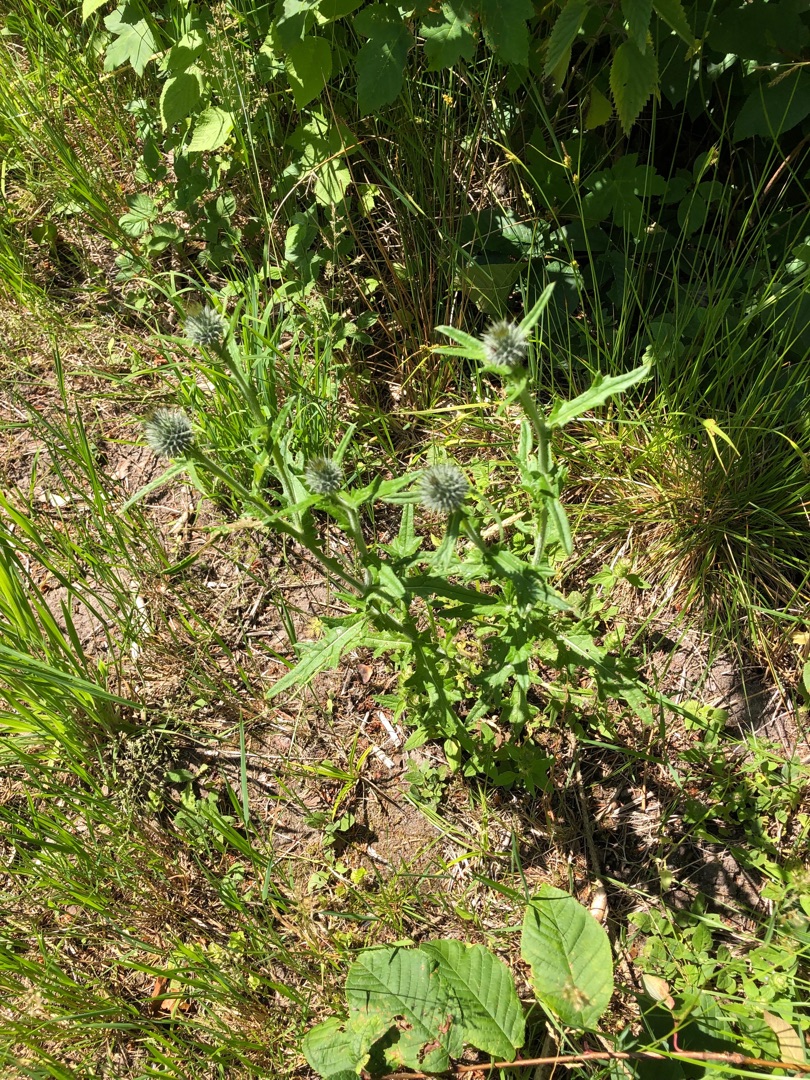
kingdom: Plantae
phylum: Tracheophyta
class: Magnoliopsida
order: Asterales
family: Asteraceae
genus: Cirsium
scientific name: Cirsium vulgare
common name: Horse-tidsel
